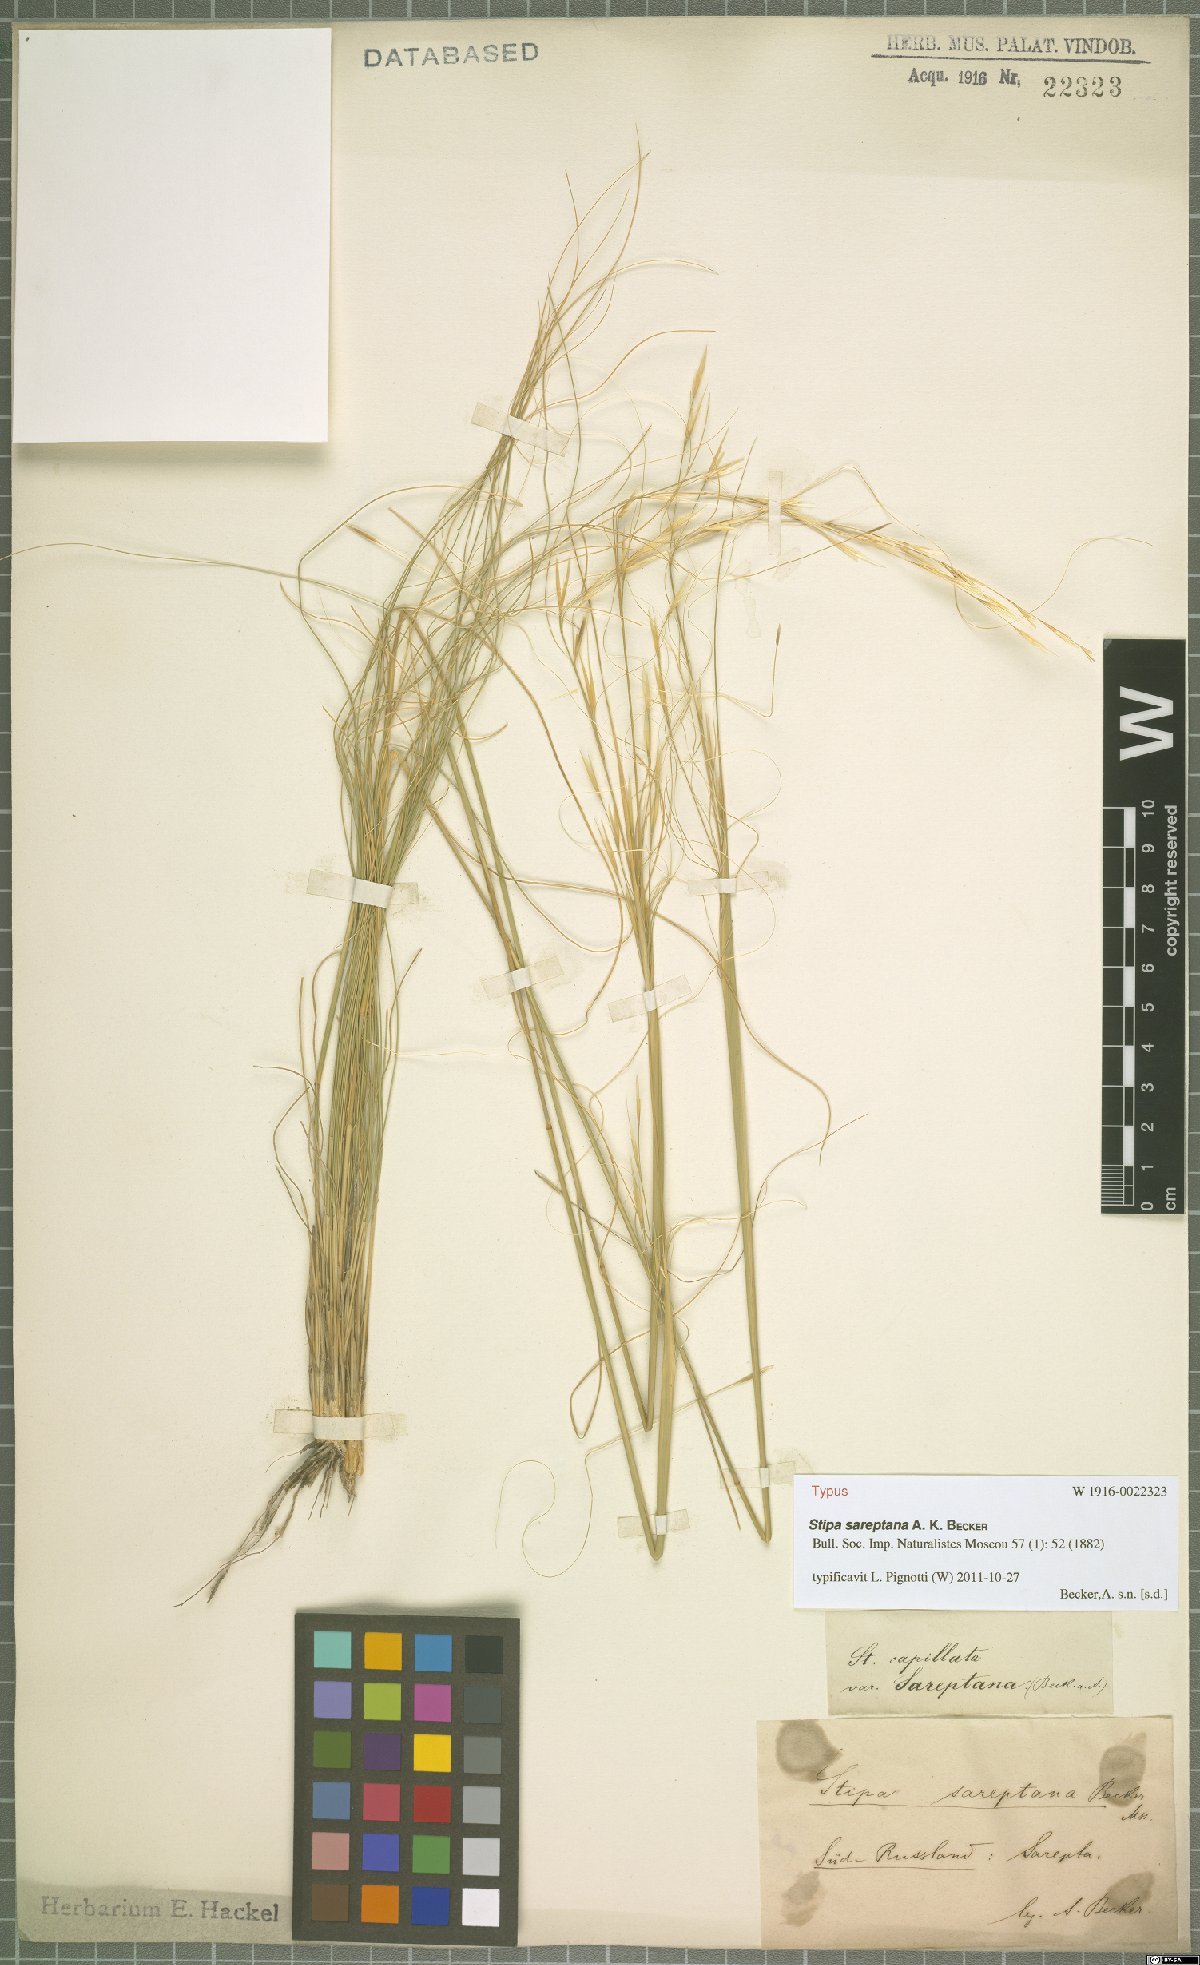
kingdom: Plantae
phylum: Tracheophyta
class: Liliopsida
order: Poales
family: Poaceae
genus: Stipa
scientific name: Stipa sareptana
